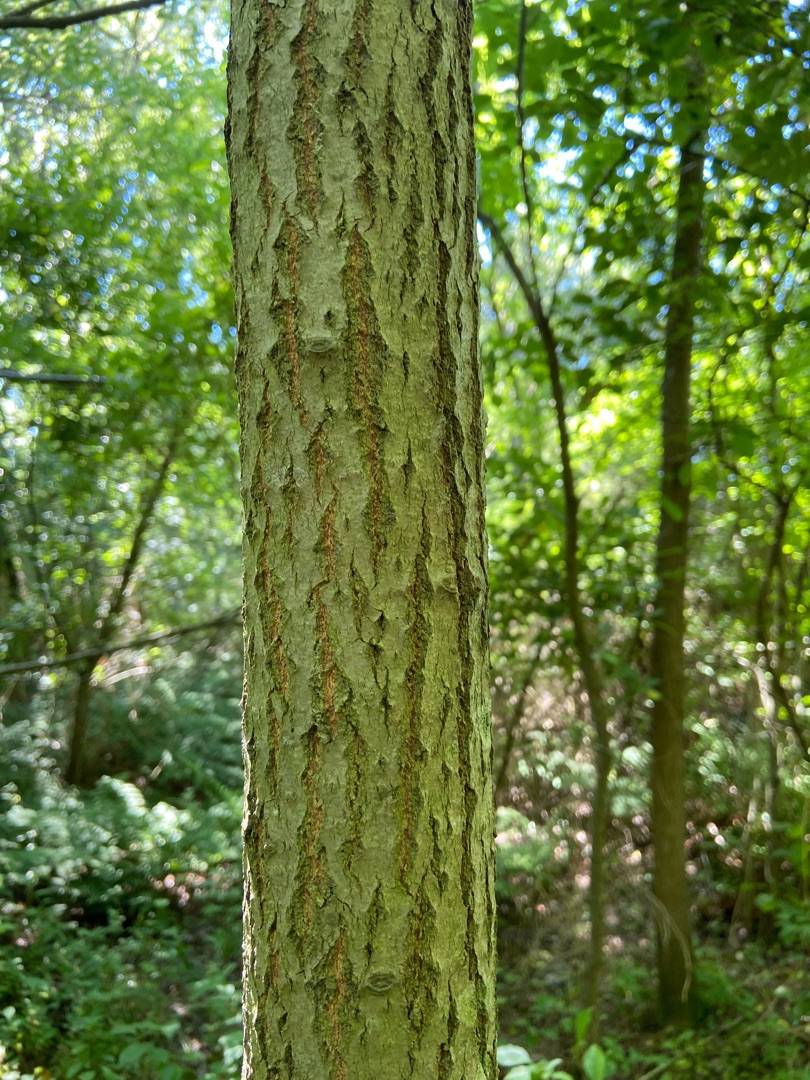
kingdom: Plantae
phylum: Tracheophyta
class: Magnoliopsida
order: Malpighiales
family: Salicaceae
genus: Populus
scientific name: Populus tremula
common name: Bævreasp
